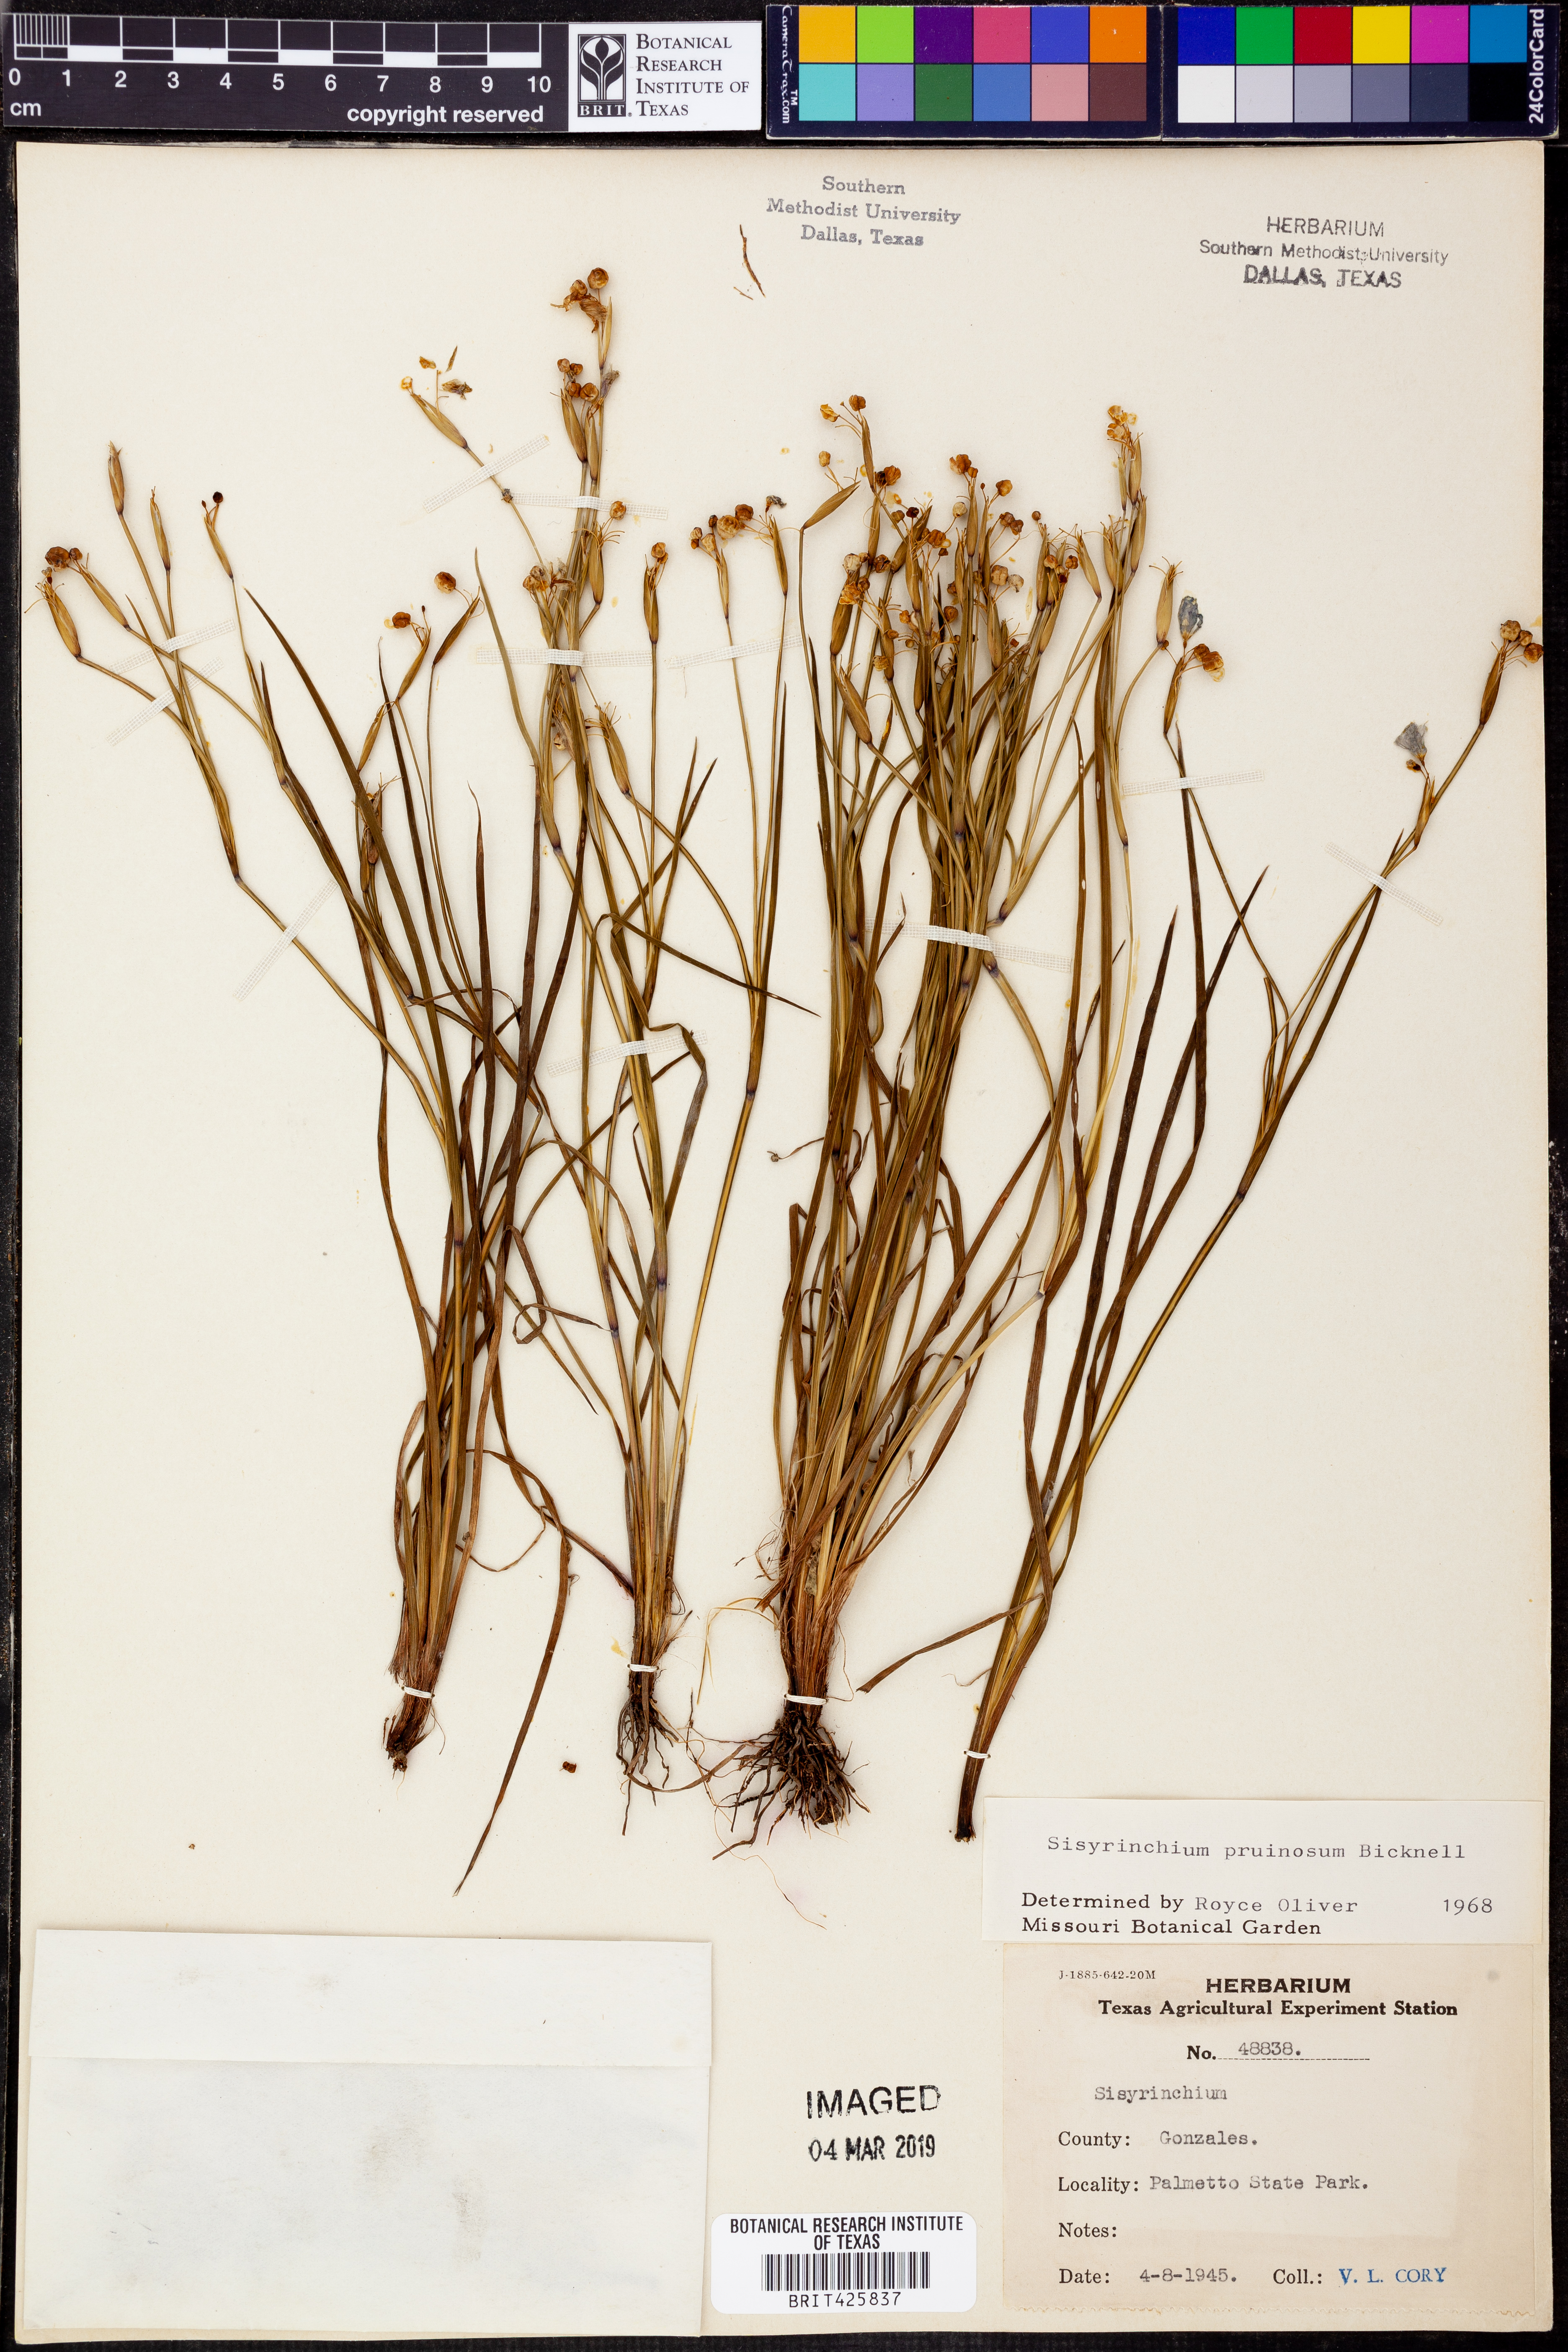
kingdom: Plantae
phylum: Tracheophyta
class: Liliopsida
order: Asparagales
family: Iridaceae
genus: Sisyrinchium
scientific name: Sisyrinchium pruinosum
